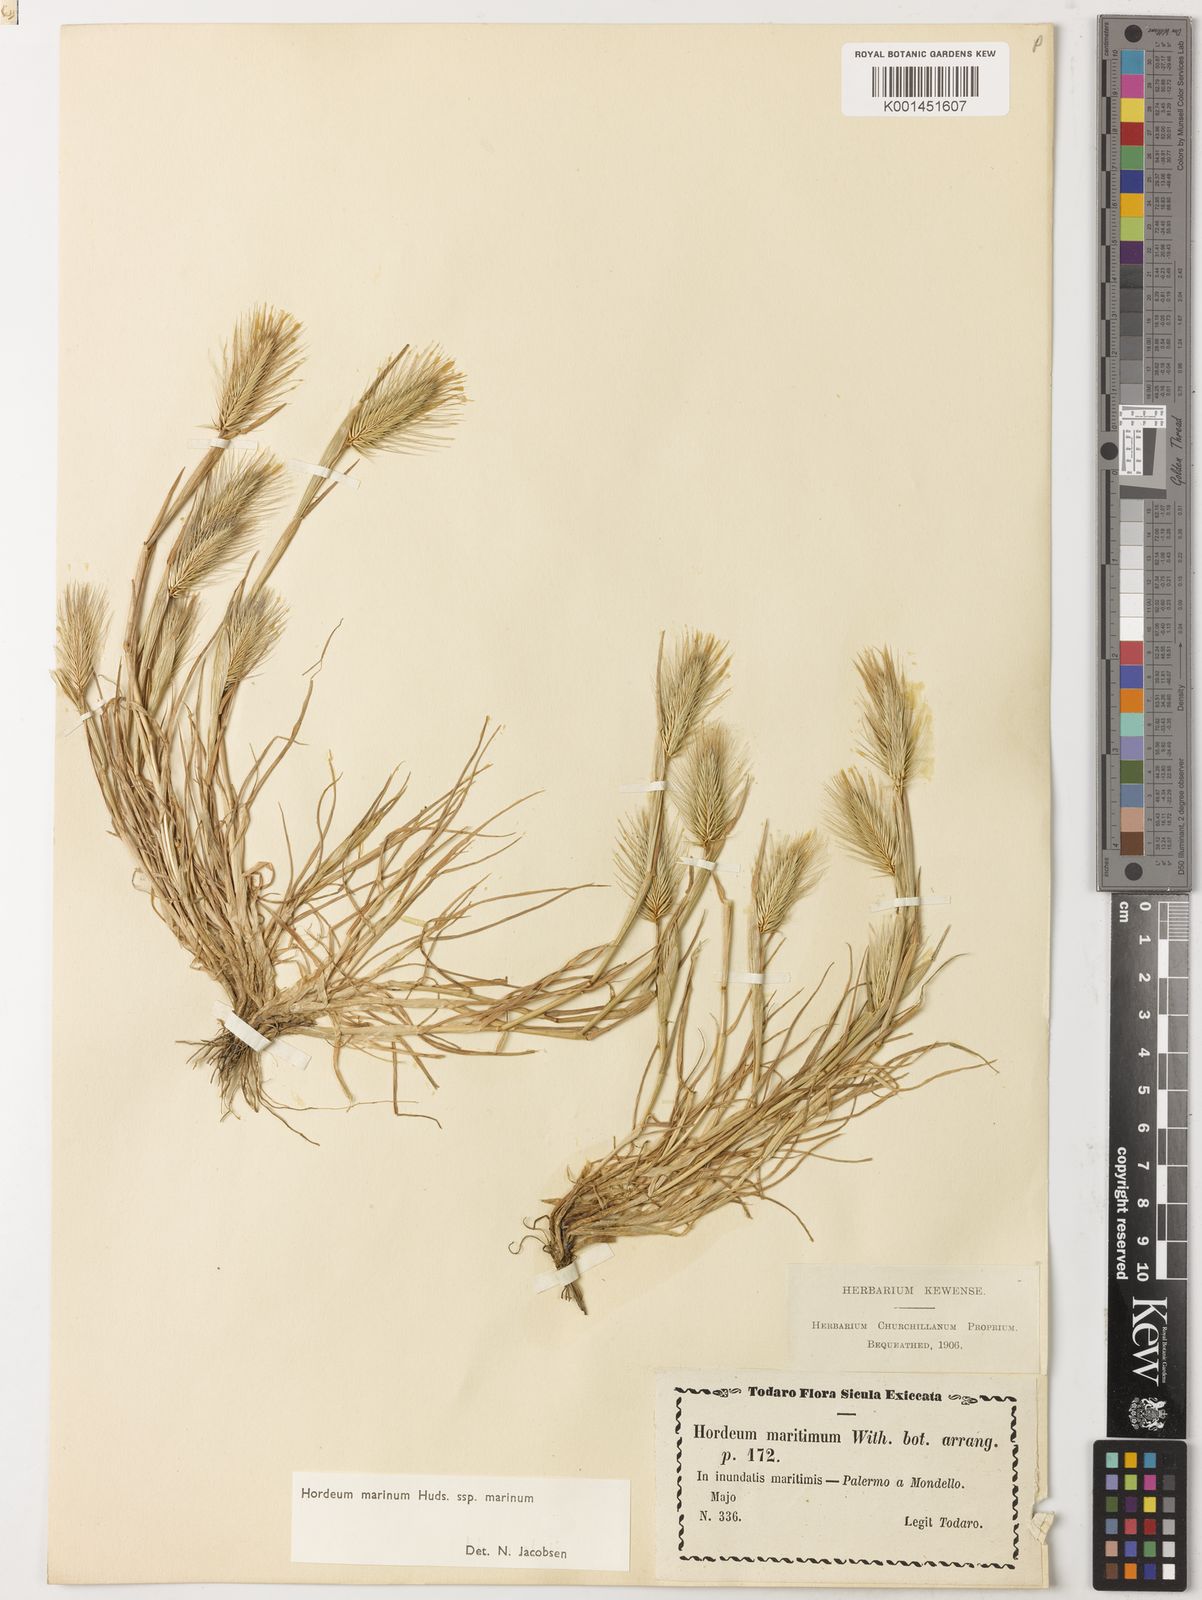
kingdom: Plantae
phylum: Tracheophyta
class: Liliopsida
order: Poales
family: Poaceae
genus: Hordeum
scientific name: Hordeum marinum
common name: Sea barley
